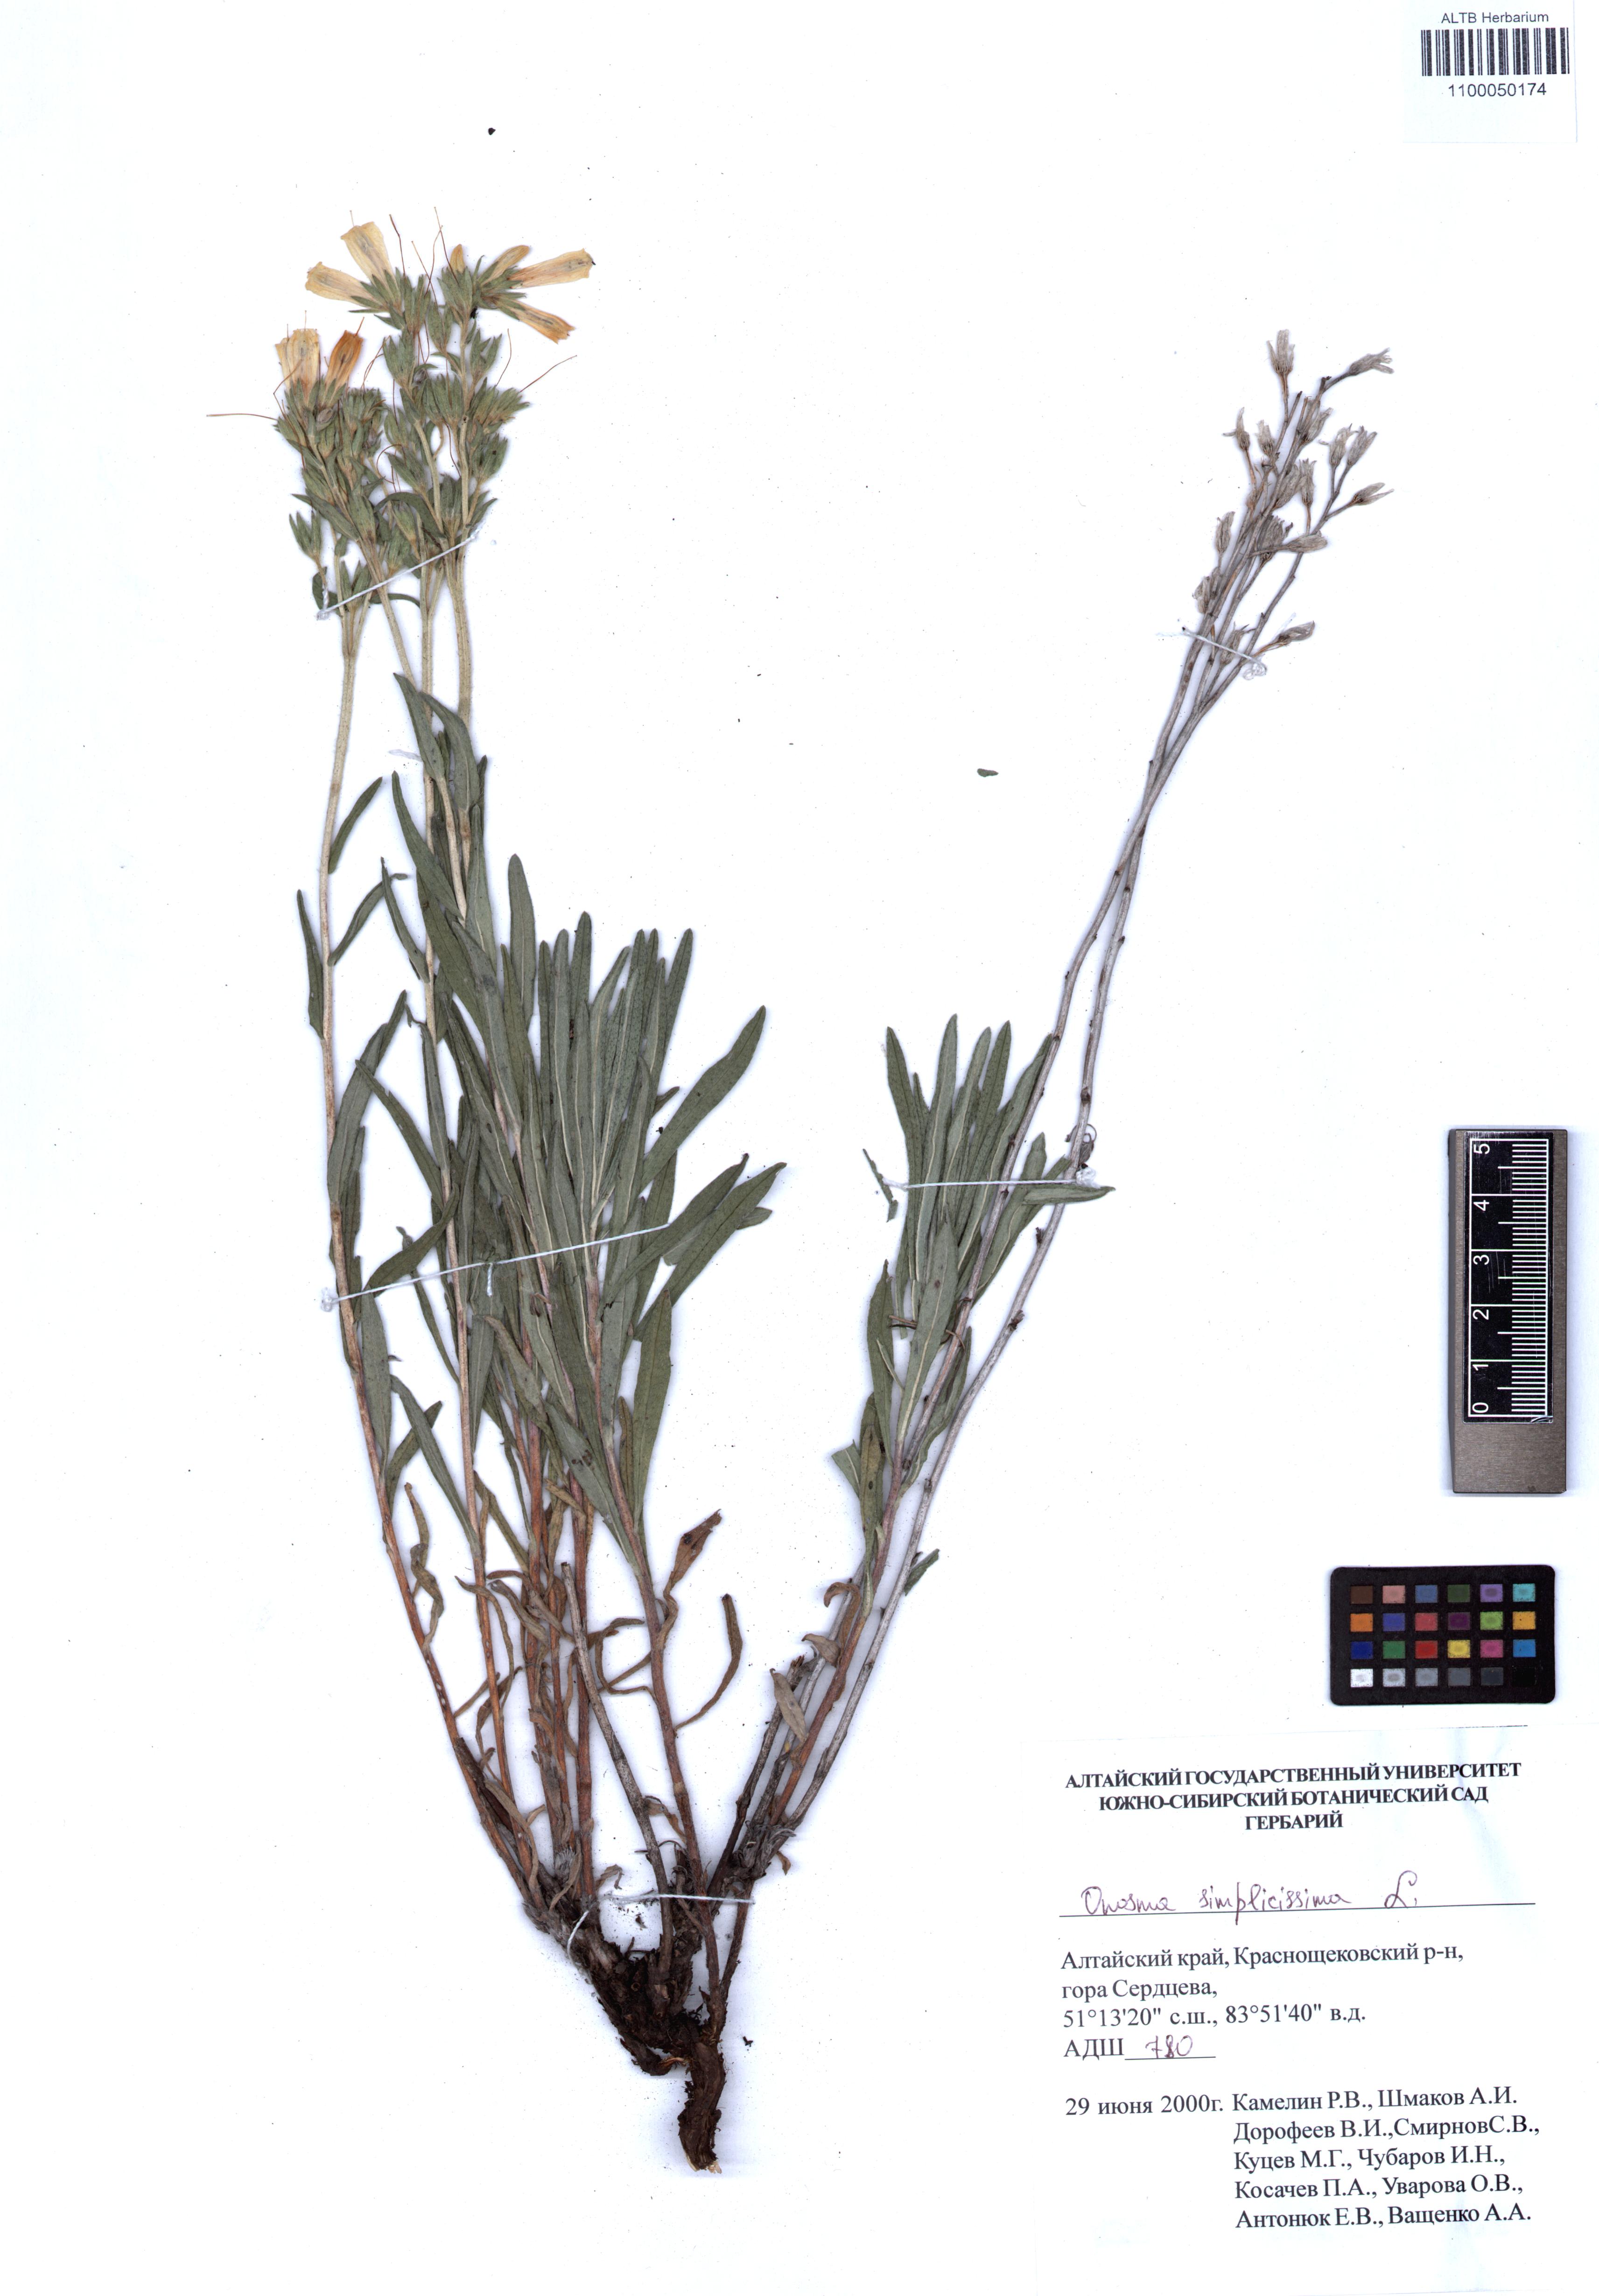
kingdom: Plantae
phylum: Tracheophyta
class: Magnoliopsida
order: Boraginales
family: Boraginaceae
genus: Onosma
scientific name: Onosma simplicissima
